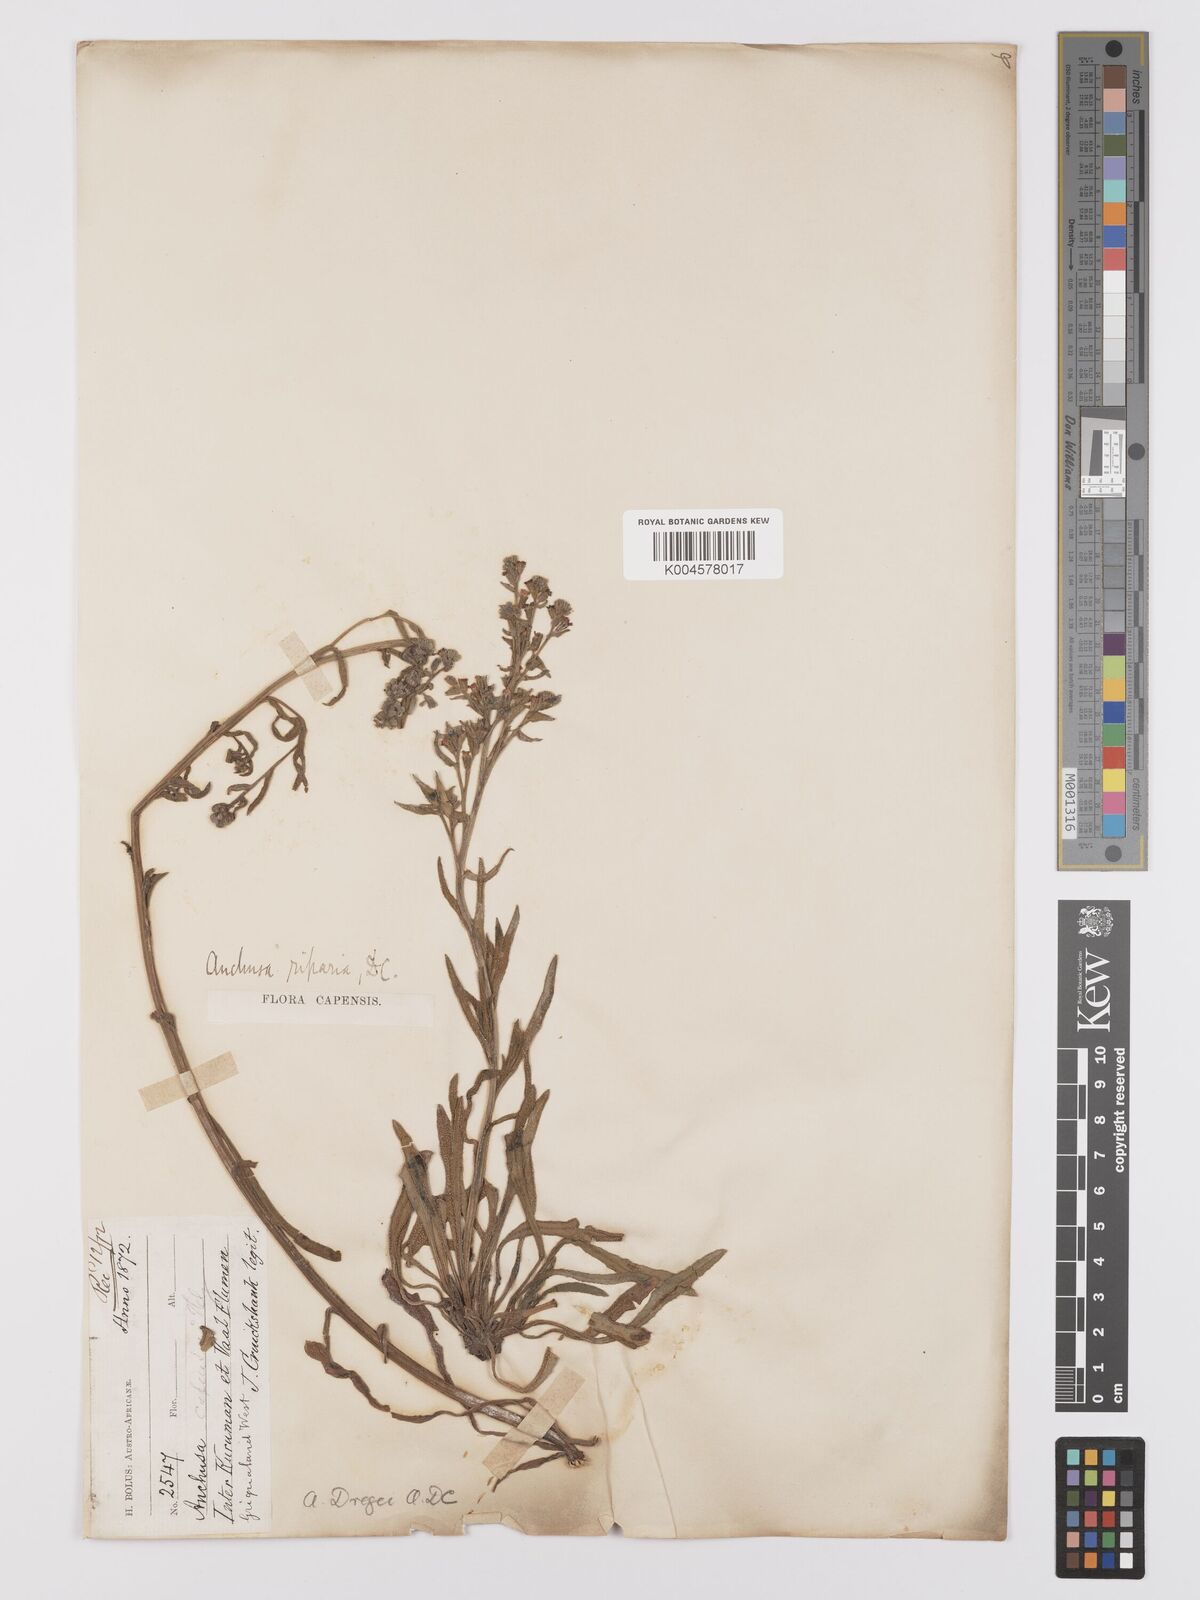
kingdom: Plantae
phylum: Tracheophyta
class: Magnoliopsida
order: Boraginales
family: Boraginaceae
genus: Anchusa
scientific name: Anchusa capensis
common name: Cape bugloss
